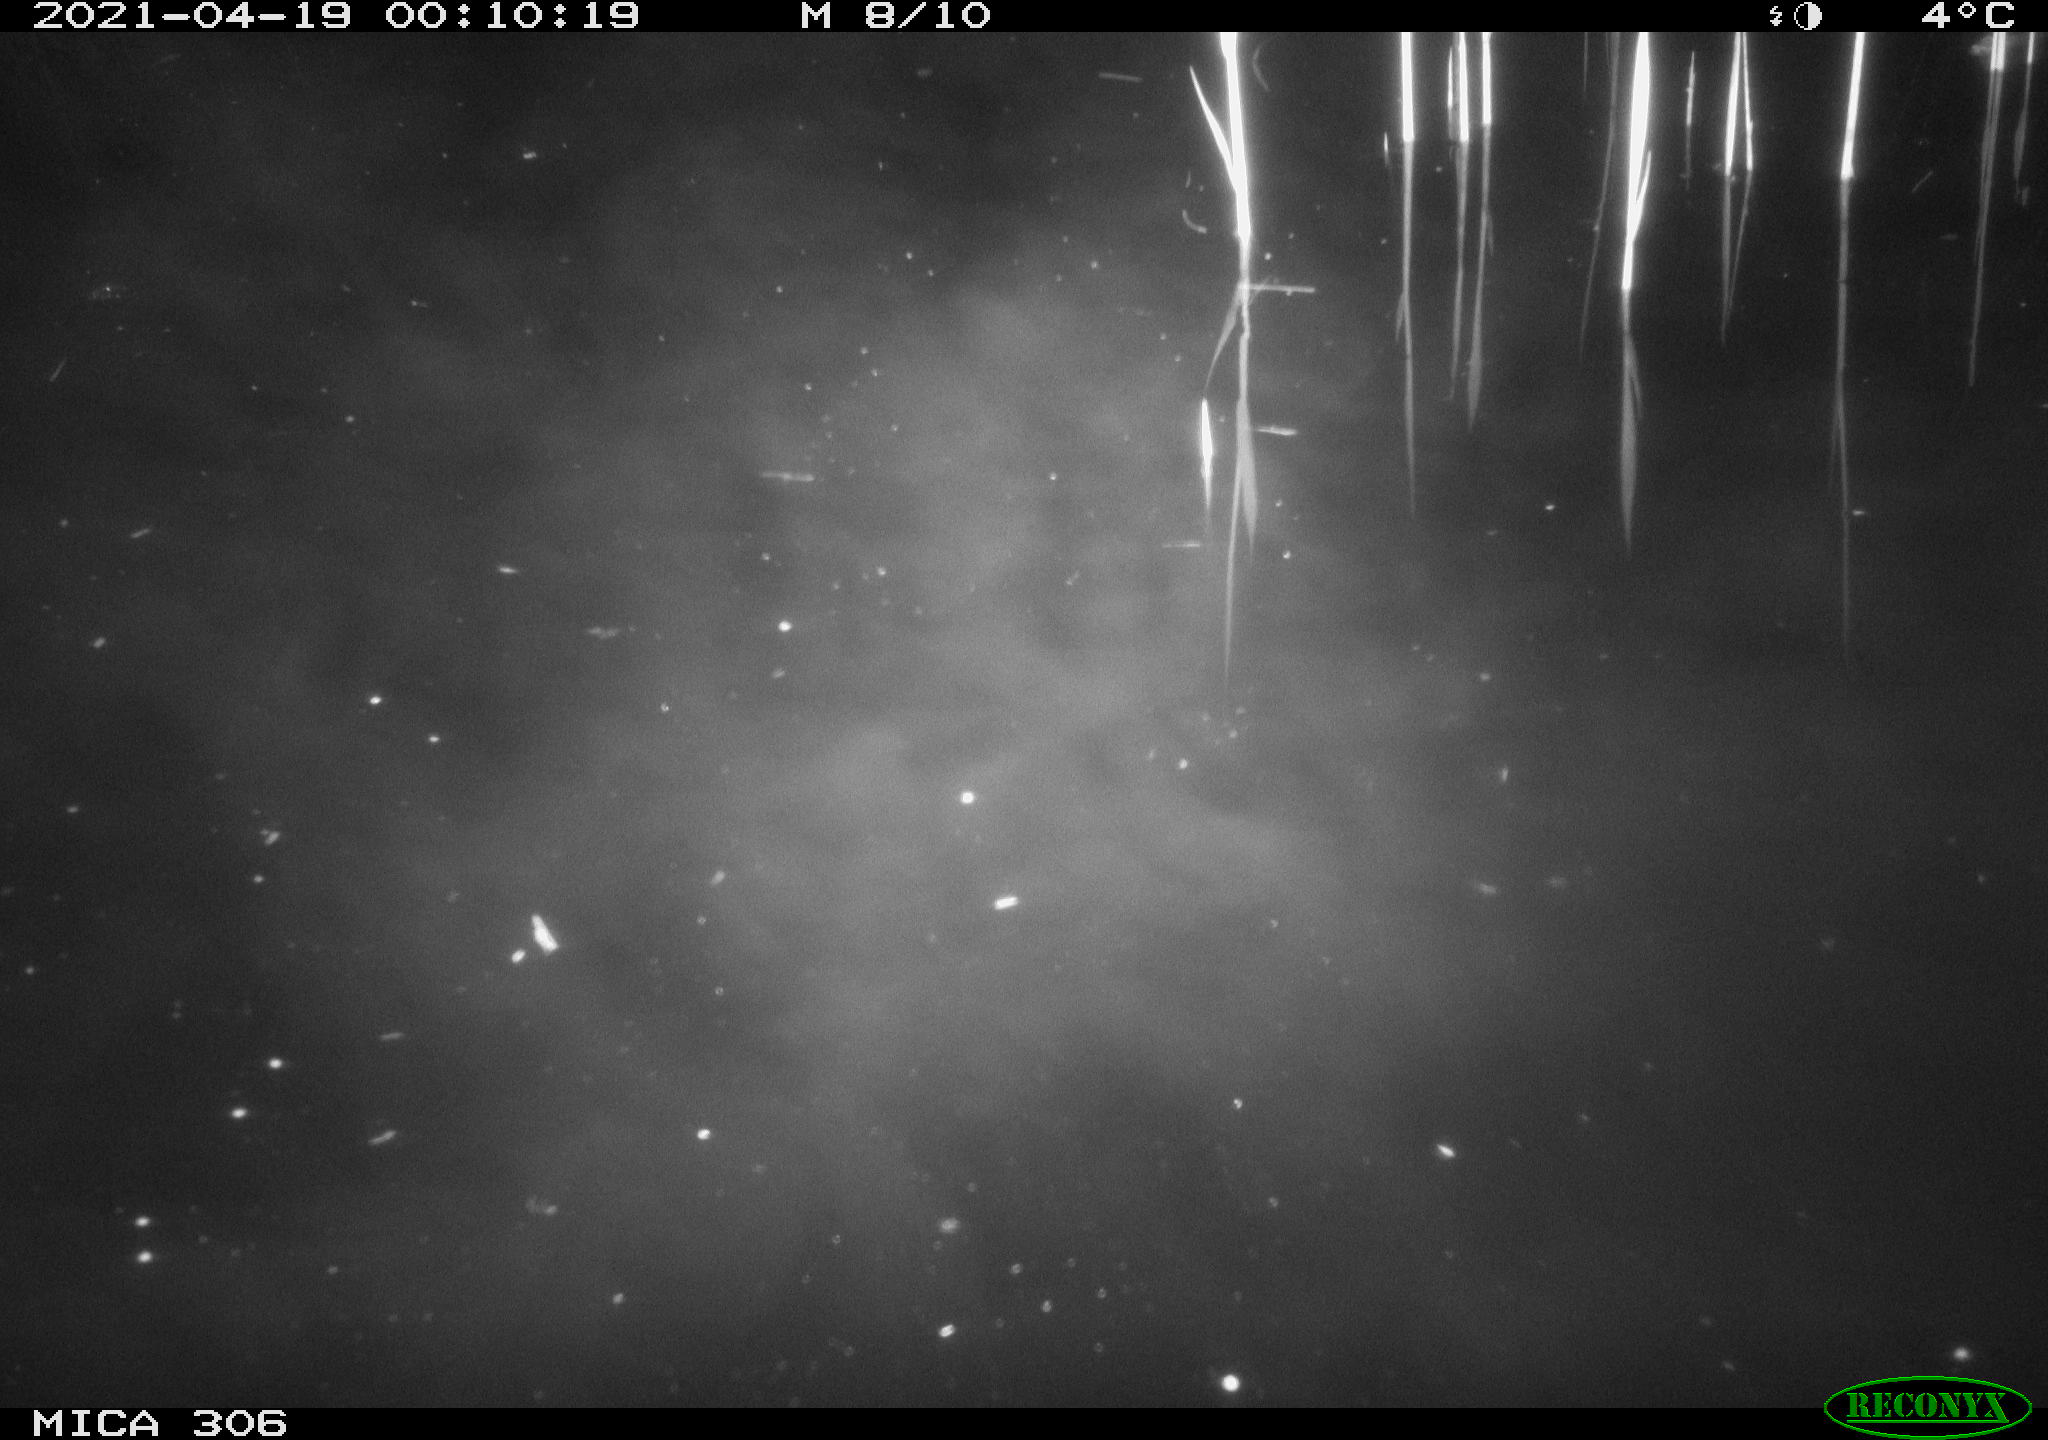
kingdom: Animalia
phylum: Chordata
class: Aves
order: Anseriformes
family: Anatidae
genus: Anas
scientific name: Anas platyrhynchos
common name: Mallard
